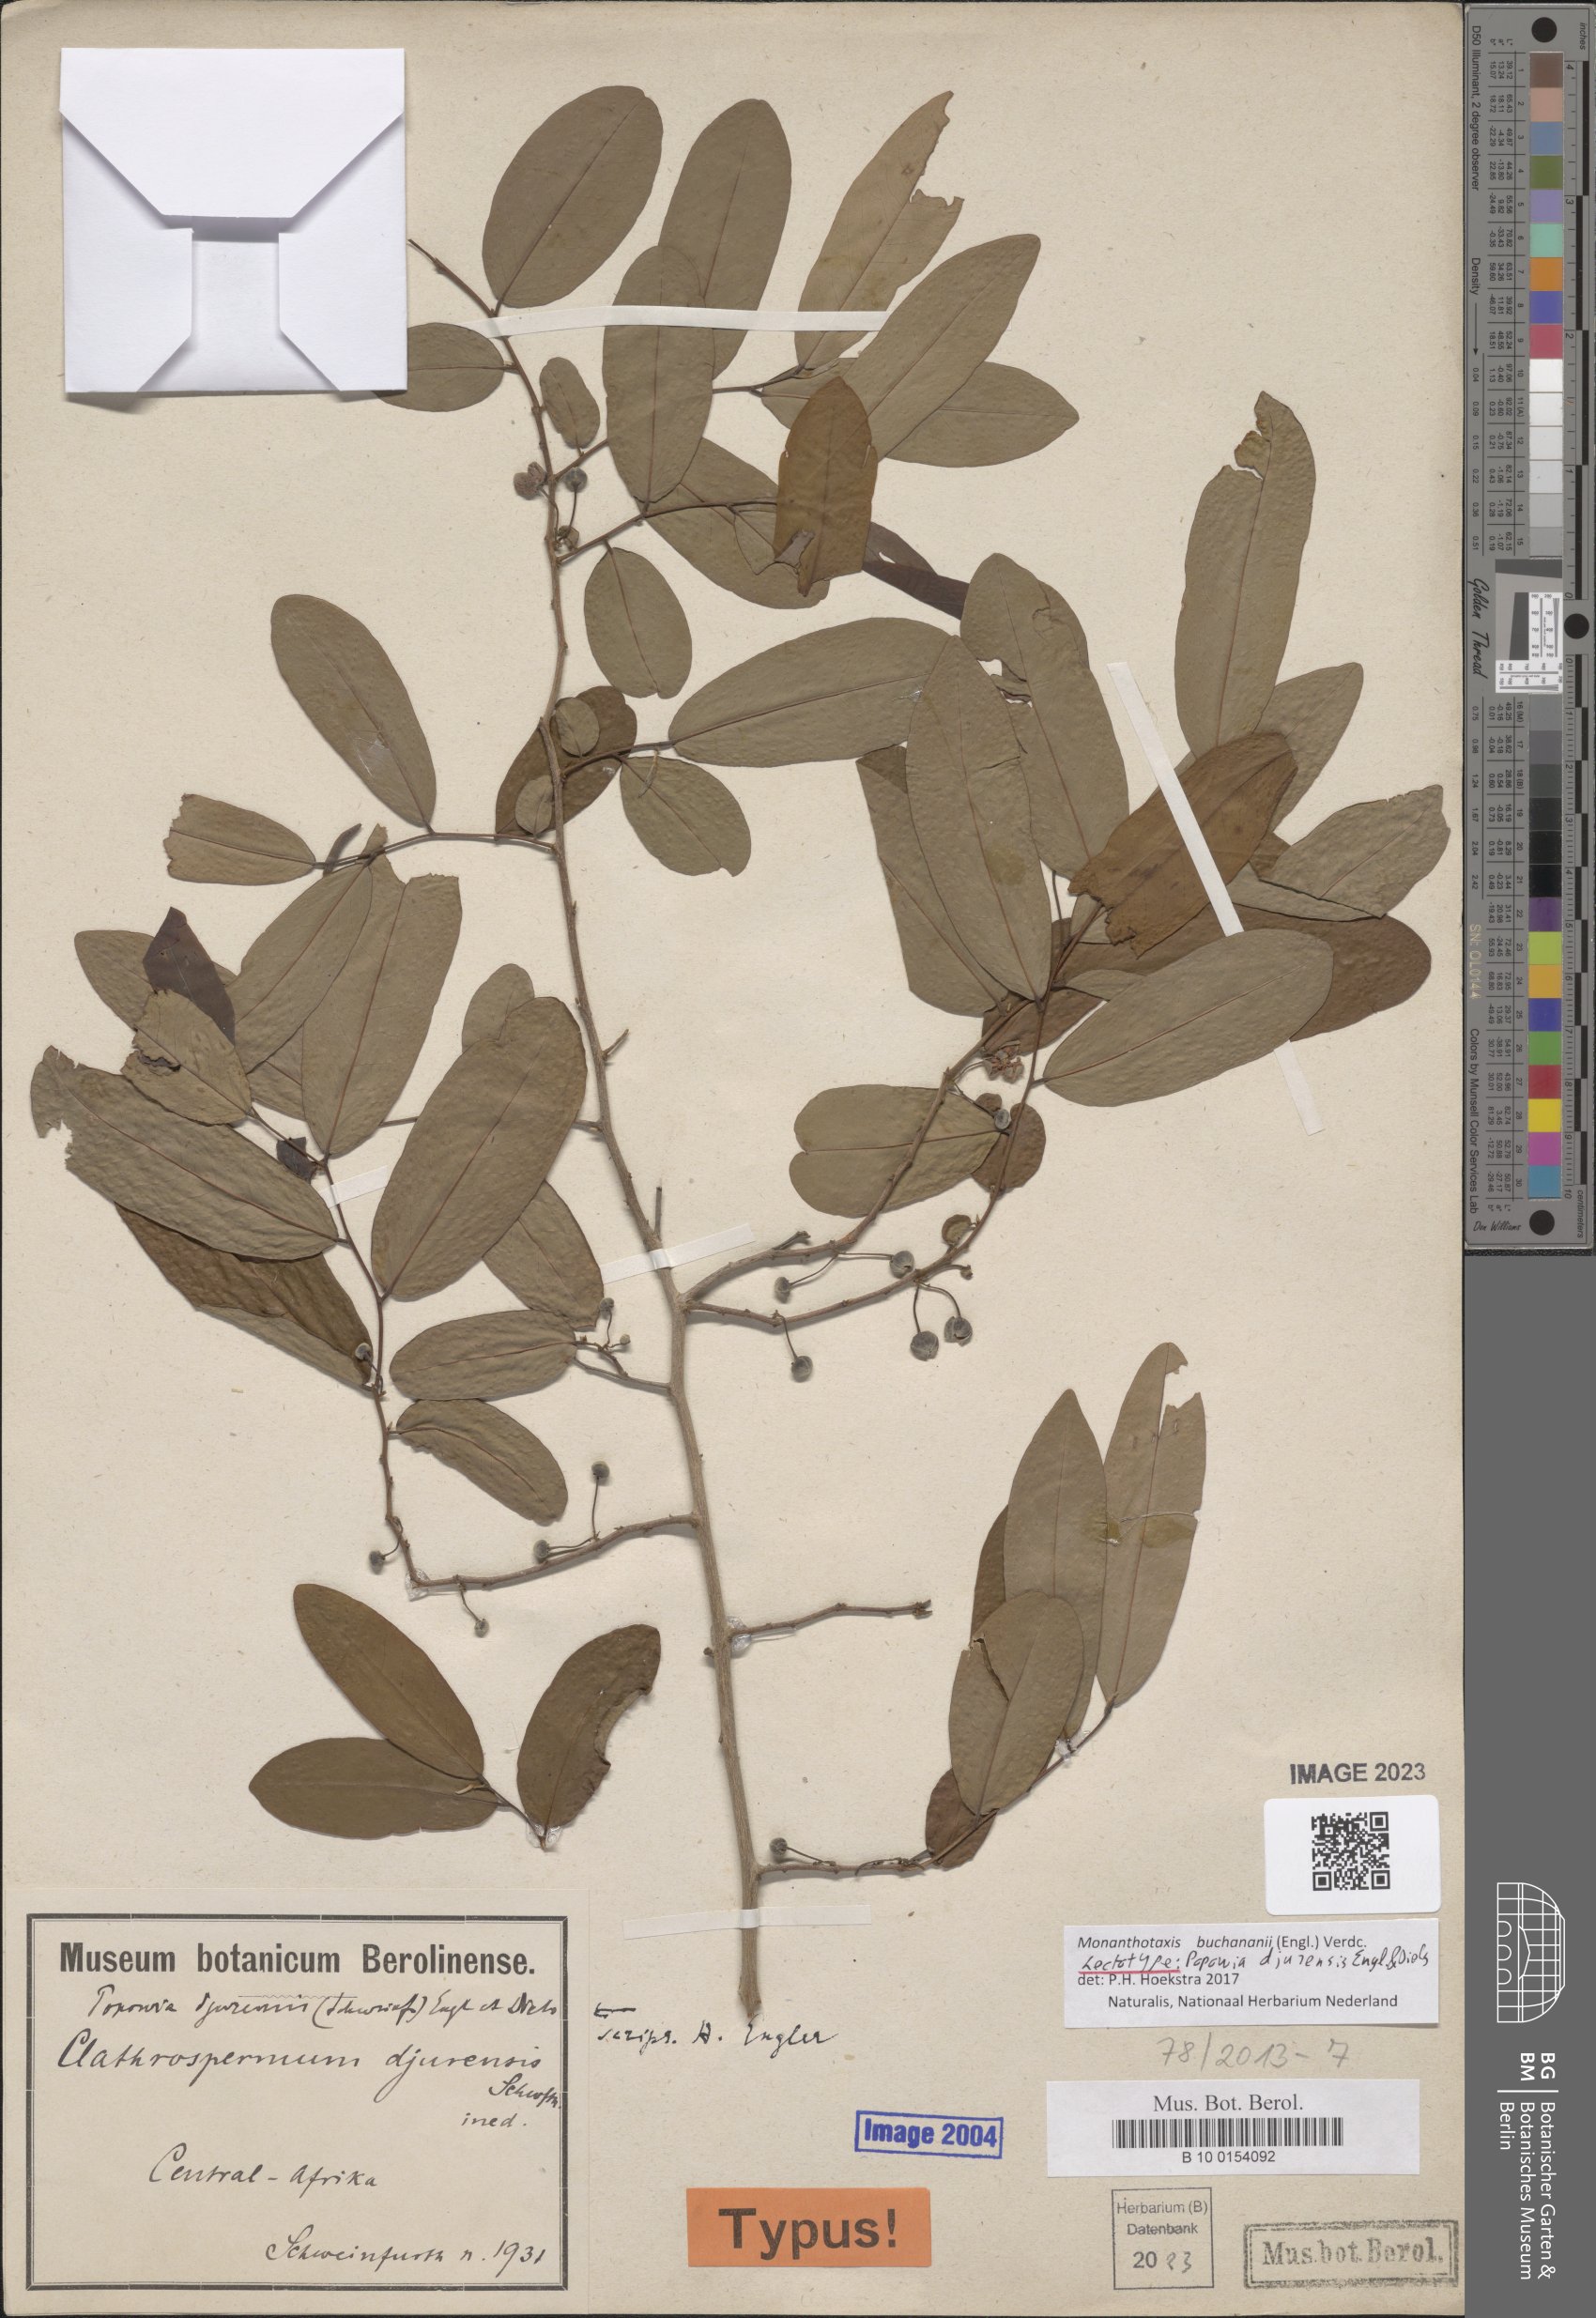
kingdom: Plantae
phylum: Tracheophyta
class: Magnoliopsida
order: Magnoliales
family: Annonaceae
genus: Monanthotaxis
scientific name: Monanthotaxis buchananii
